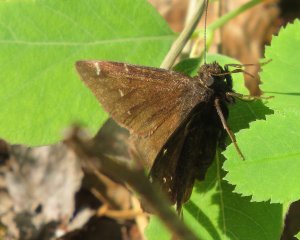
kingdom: Animalia
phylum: Arthropoda
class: Insecta
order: Lepidoptera
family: Hesperiidae
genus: Autochton
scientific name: Autochton
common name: Northern Cloudywing
